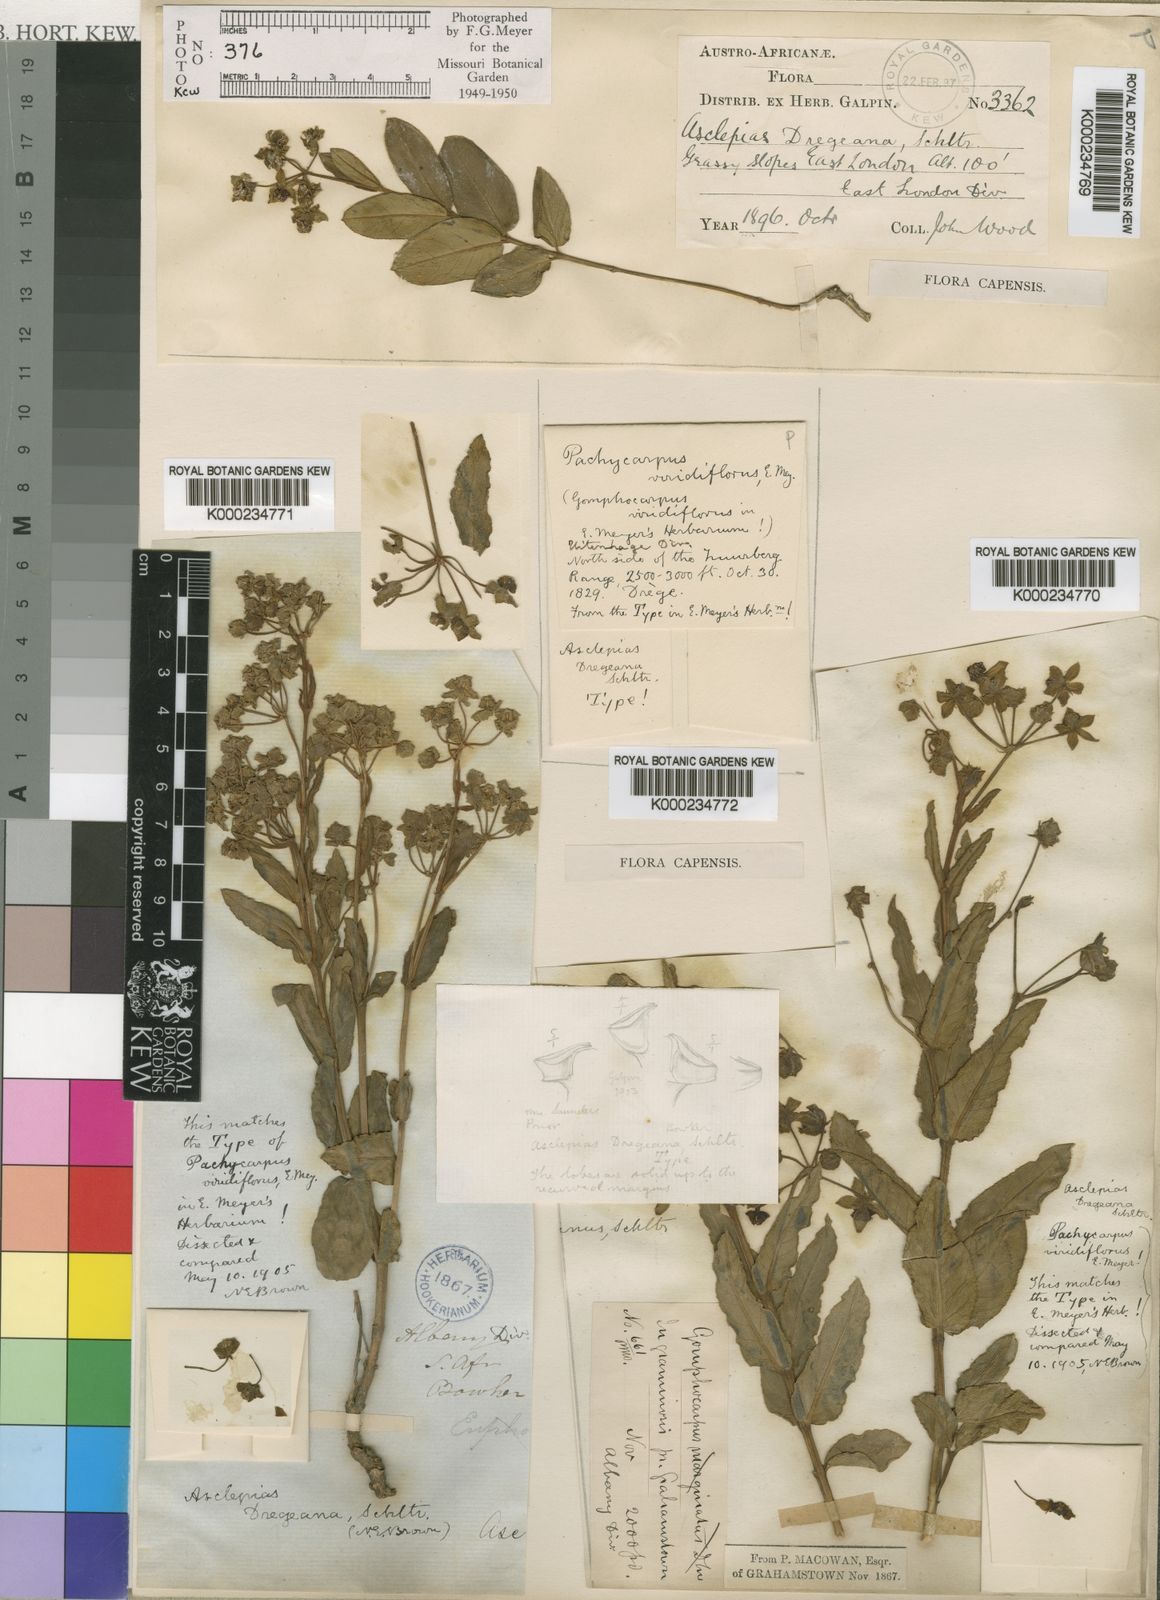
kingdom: Plantae
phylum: Tracheophyta
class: Magnoliopsida
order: Gentianales
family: Apocynaceae
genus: Asclepias
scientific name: Asclepias fulva
